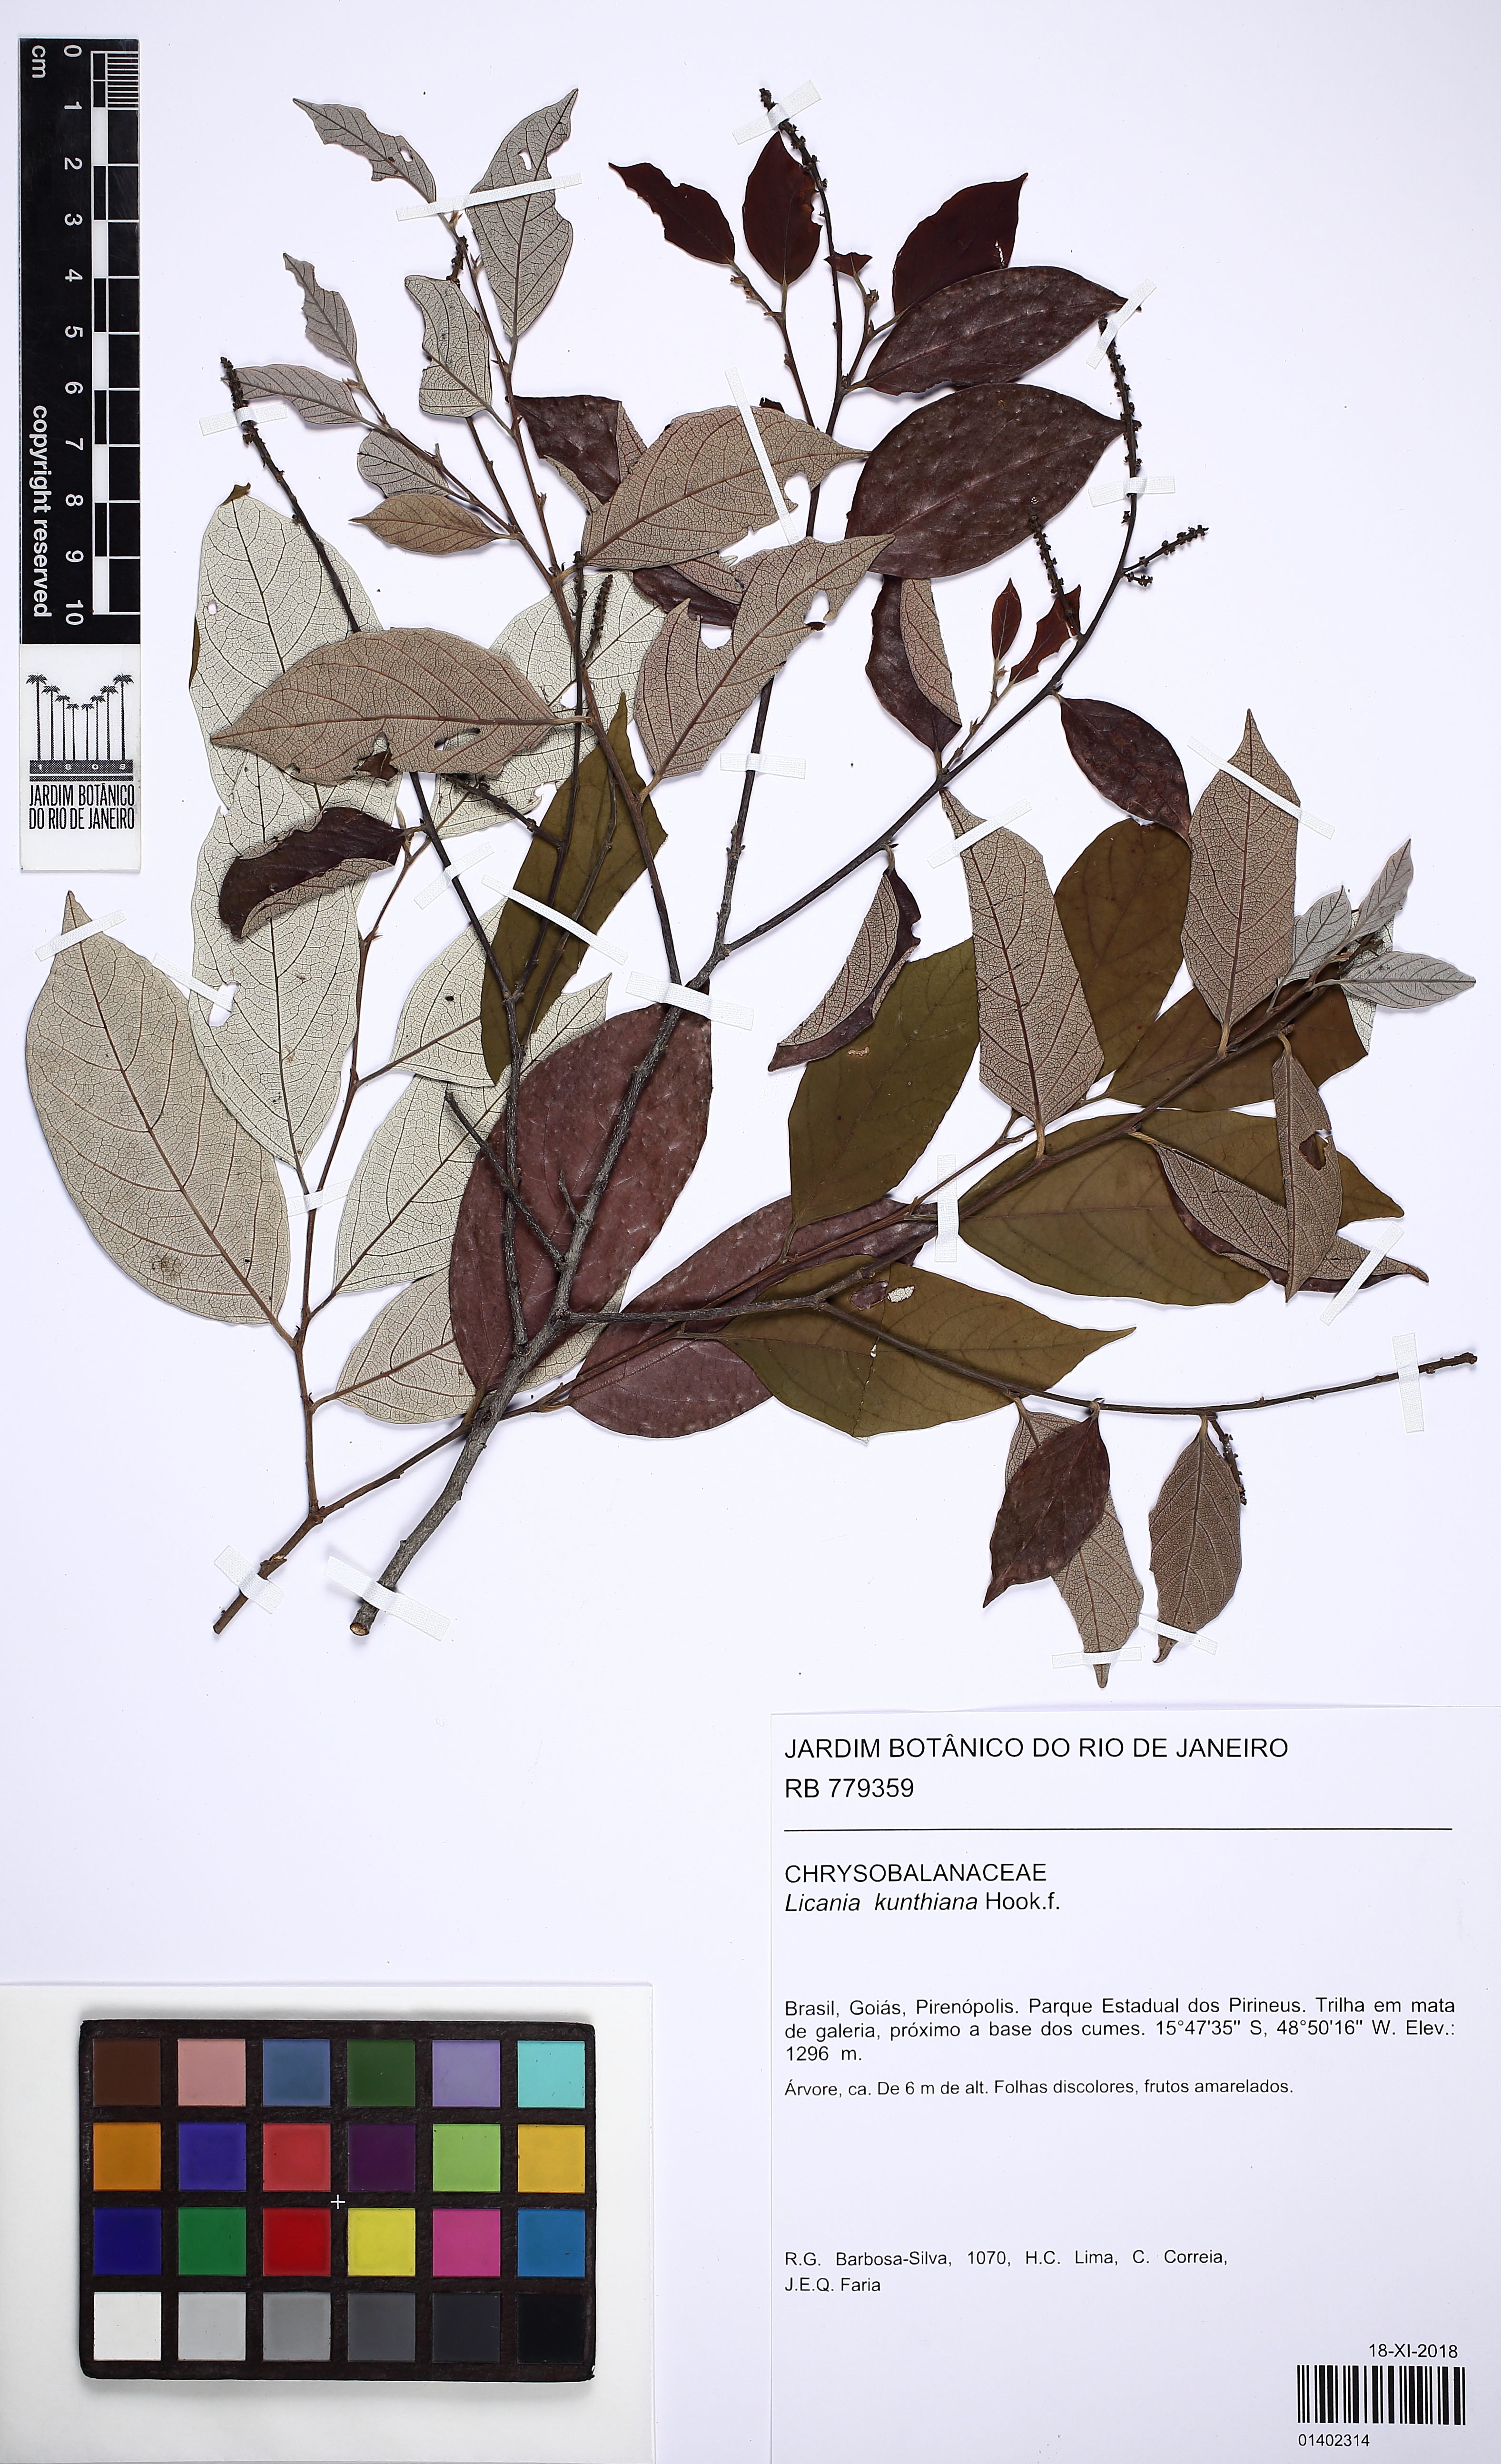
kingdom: Plantae
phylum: Tracheophyta
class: Magnoliopsida
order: Malpighiales
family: Chrysobalanaceae
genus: Licania
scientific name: Licania kunthiana
